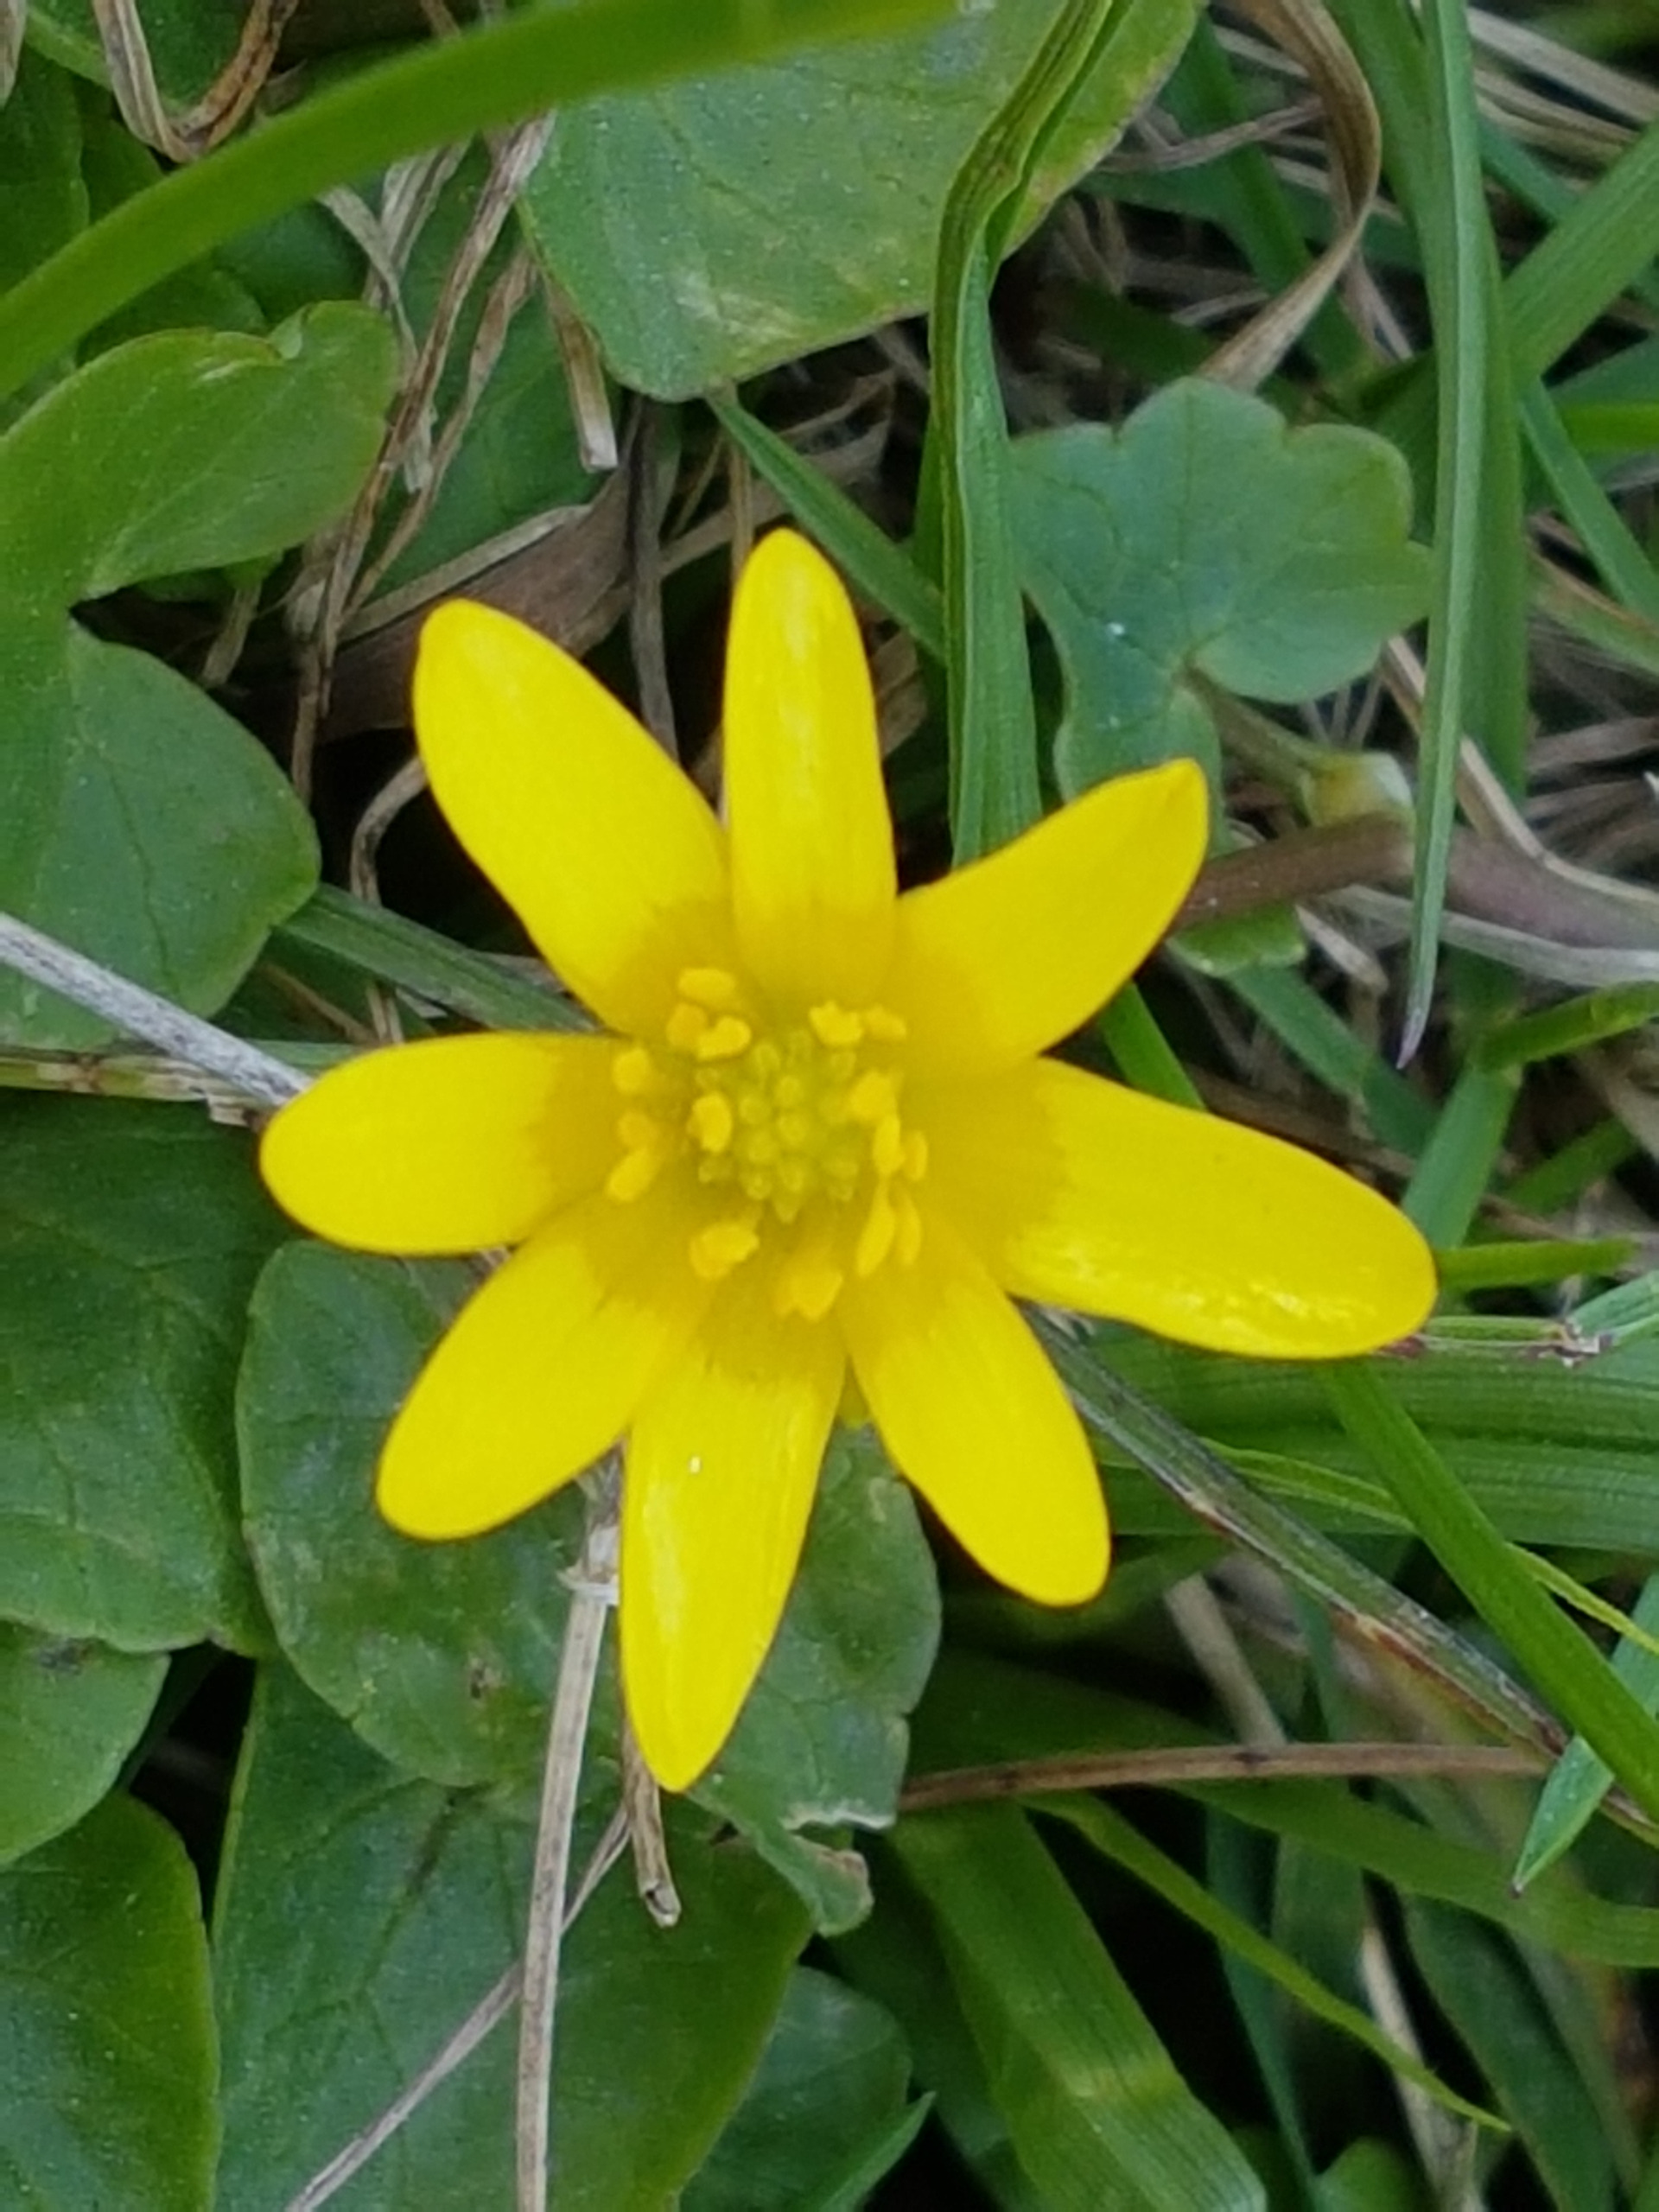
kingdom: Plantae
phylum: Tracheophyta
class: Magnoliopsida
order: Ranunculales
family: Ranunculaceae
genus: Ficaria
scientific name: Ficaria verna
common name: Vorterod
